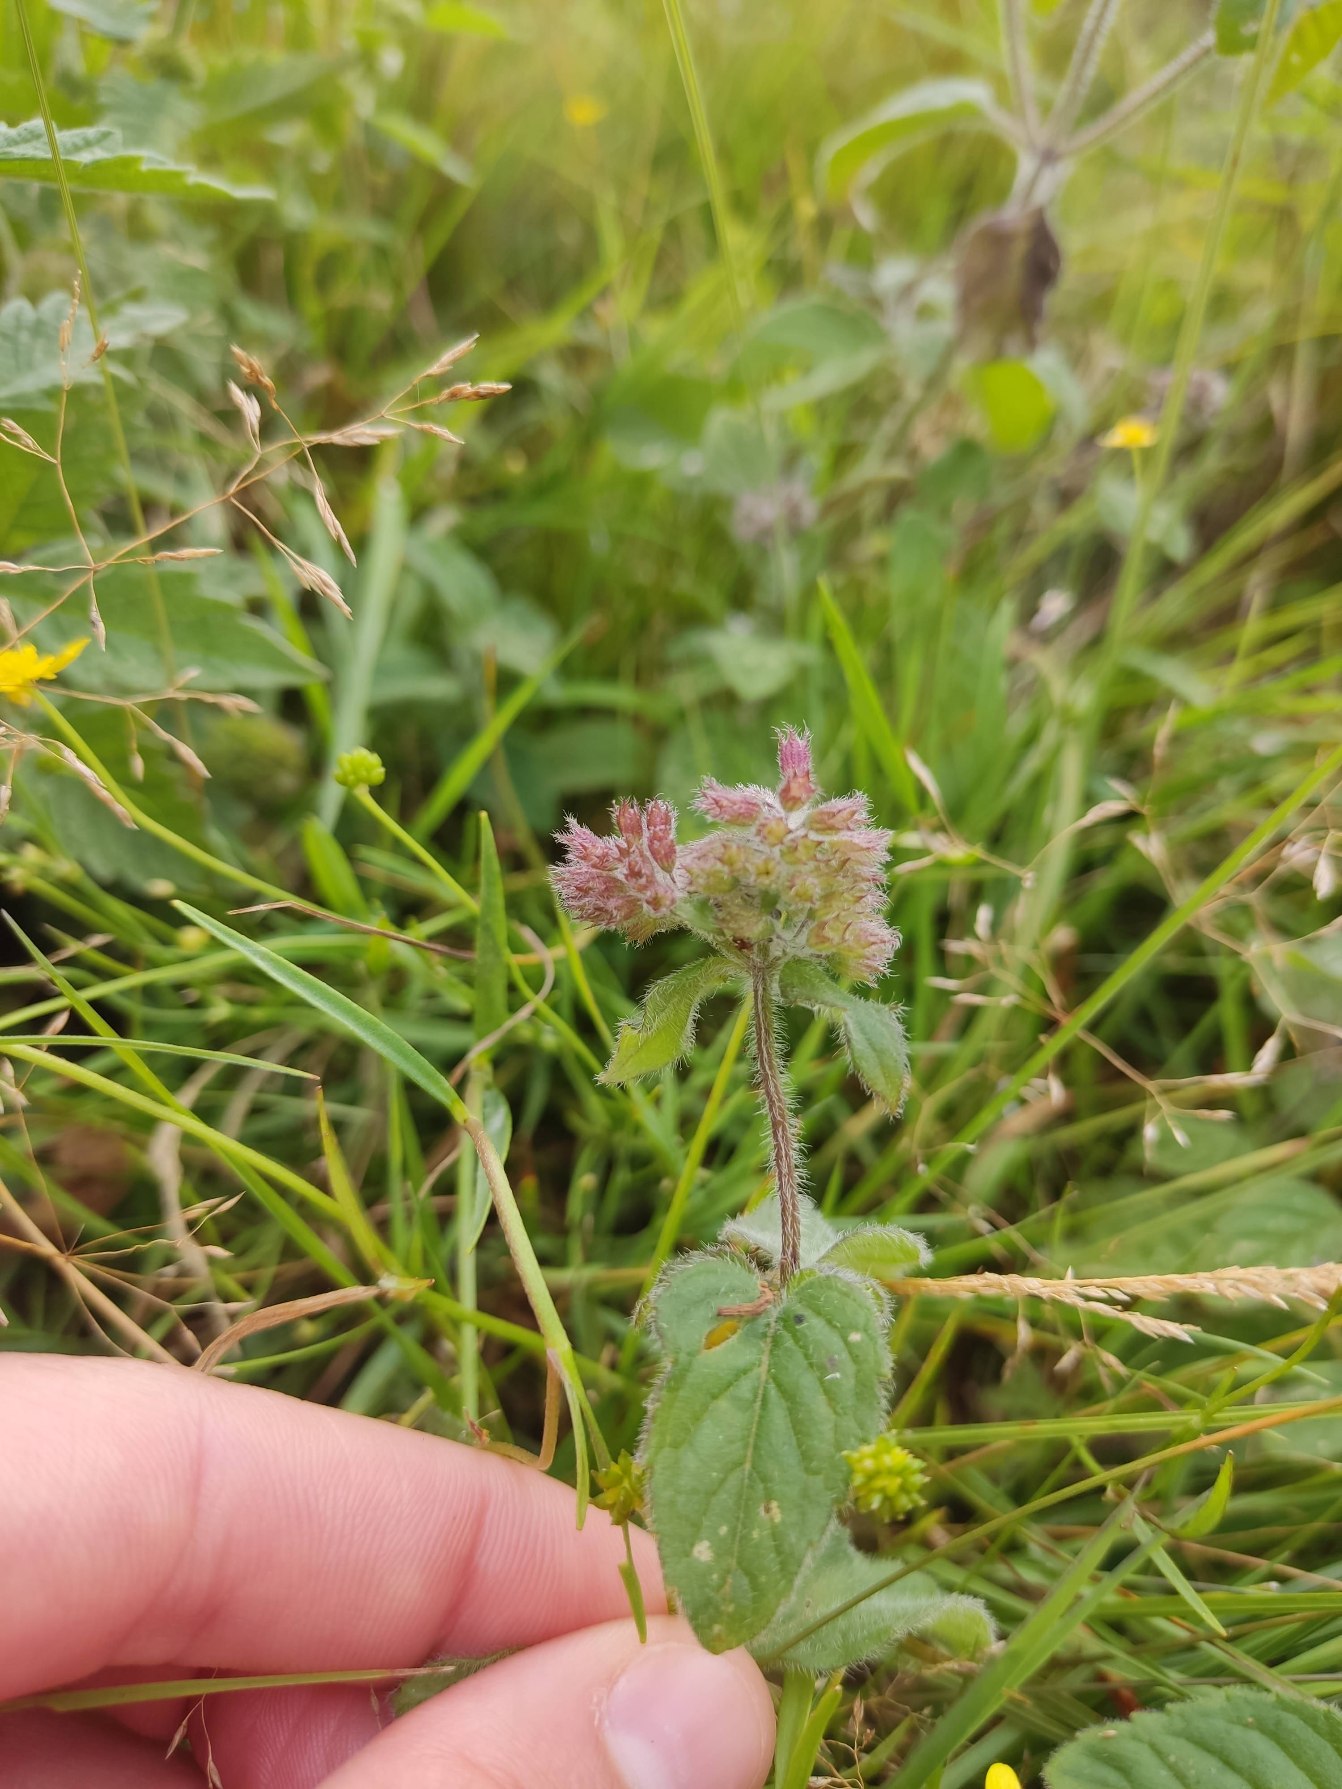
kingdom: Plantae
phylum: Tracheophyta
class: Magnoliopsida
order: Lamiales
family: Lamiaceae
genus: Mentha
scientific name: Mentha aquatica
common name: Vand-mynte
